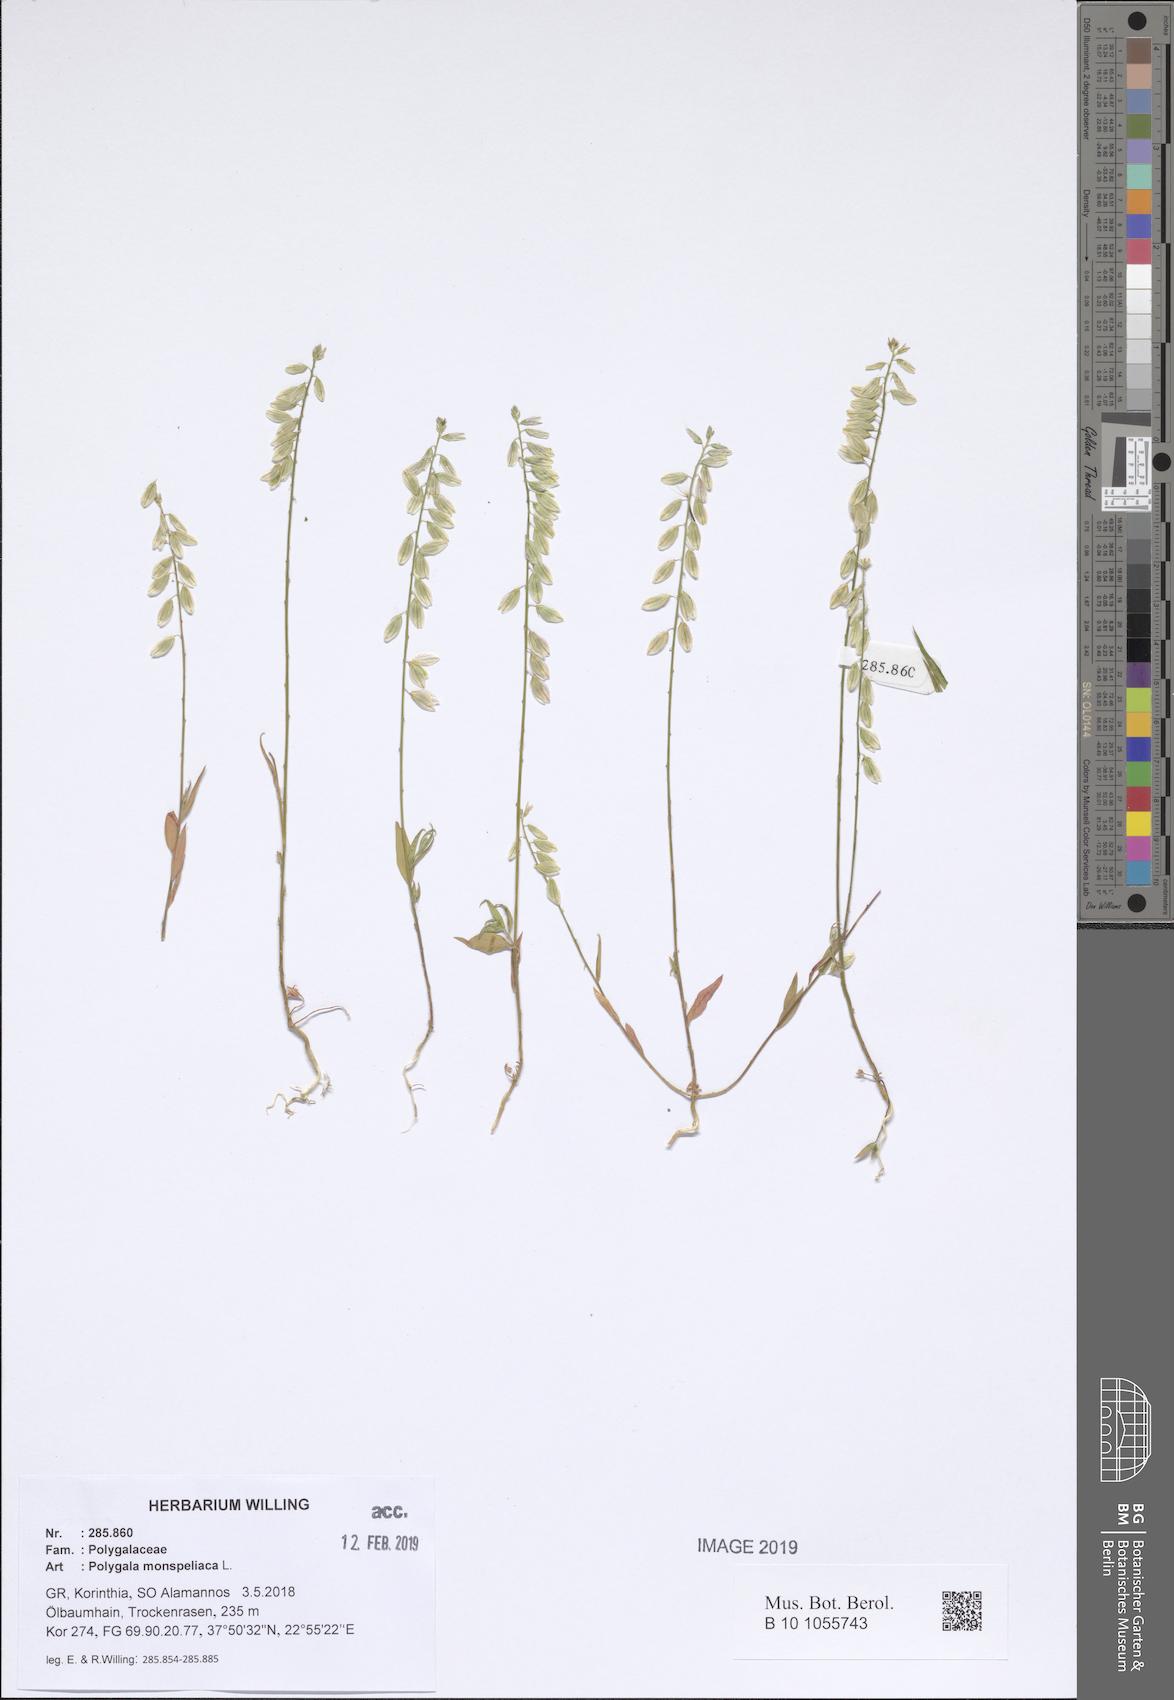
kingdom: Plantae
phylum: Tracheophyta
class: Magnoliopsida
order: Fabales
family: Polygalaceae
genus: Polygala
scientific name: Polygala monspeliaca
